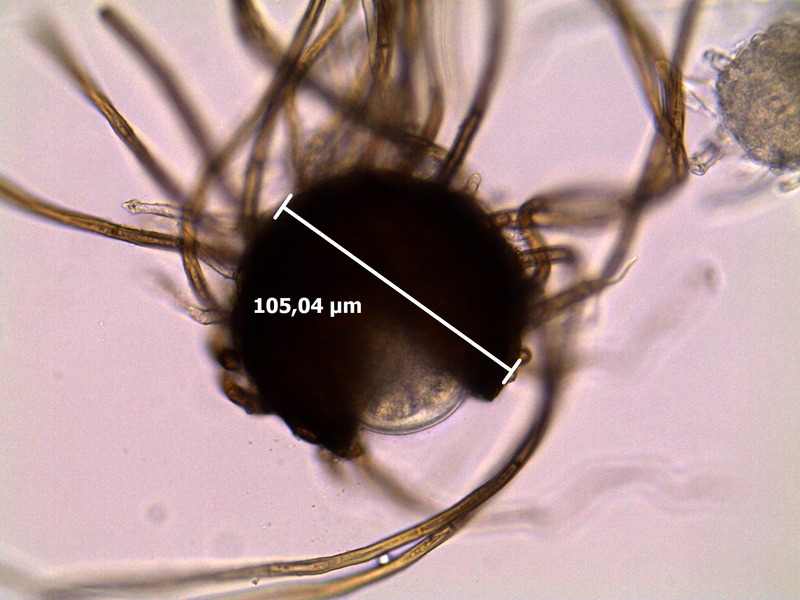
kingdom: Fungi
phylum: Ascomycota
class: Leotiomycetes
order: Helotiales
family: Erysiphaceae
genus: Podosphaera
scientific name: Podosphaera spiraeae
